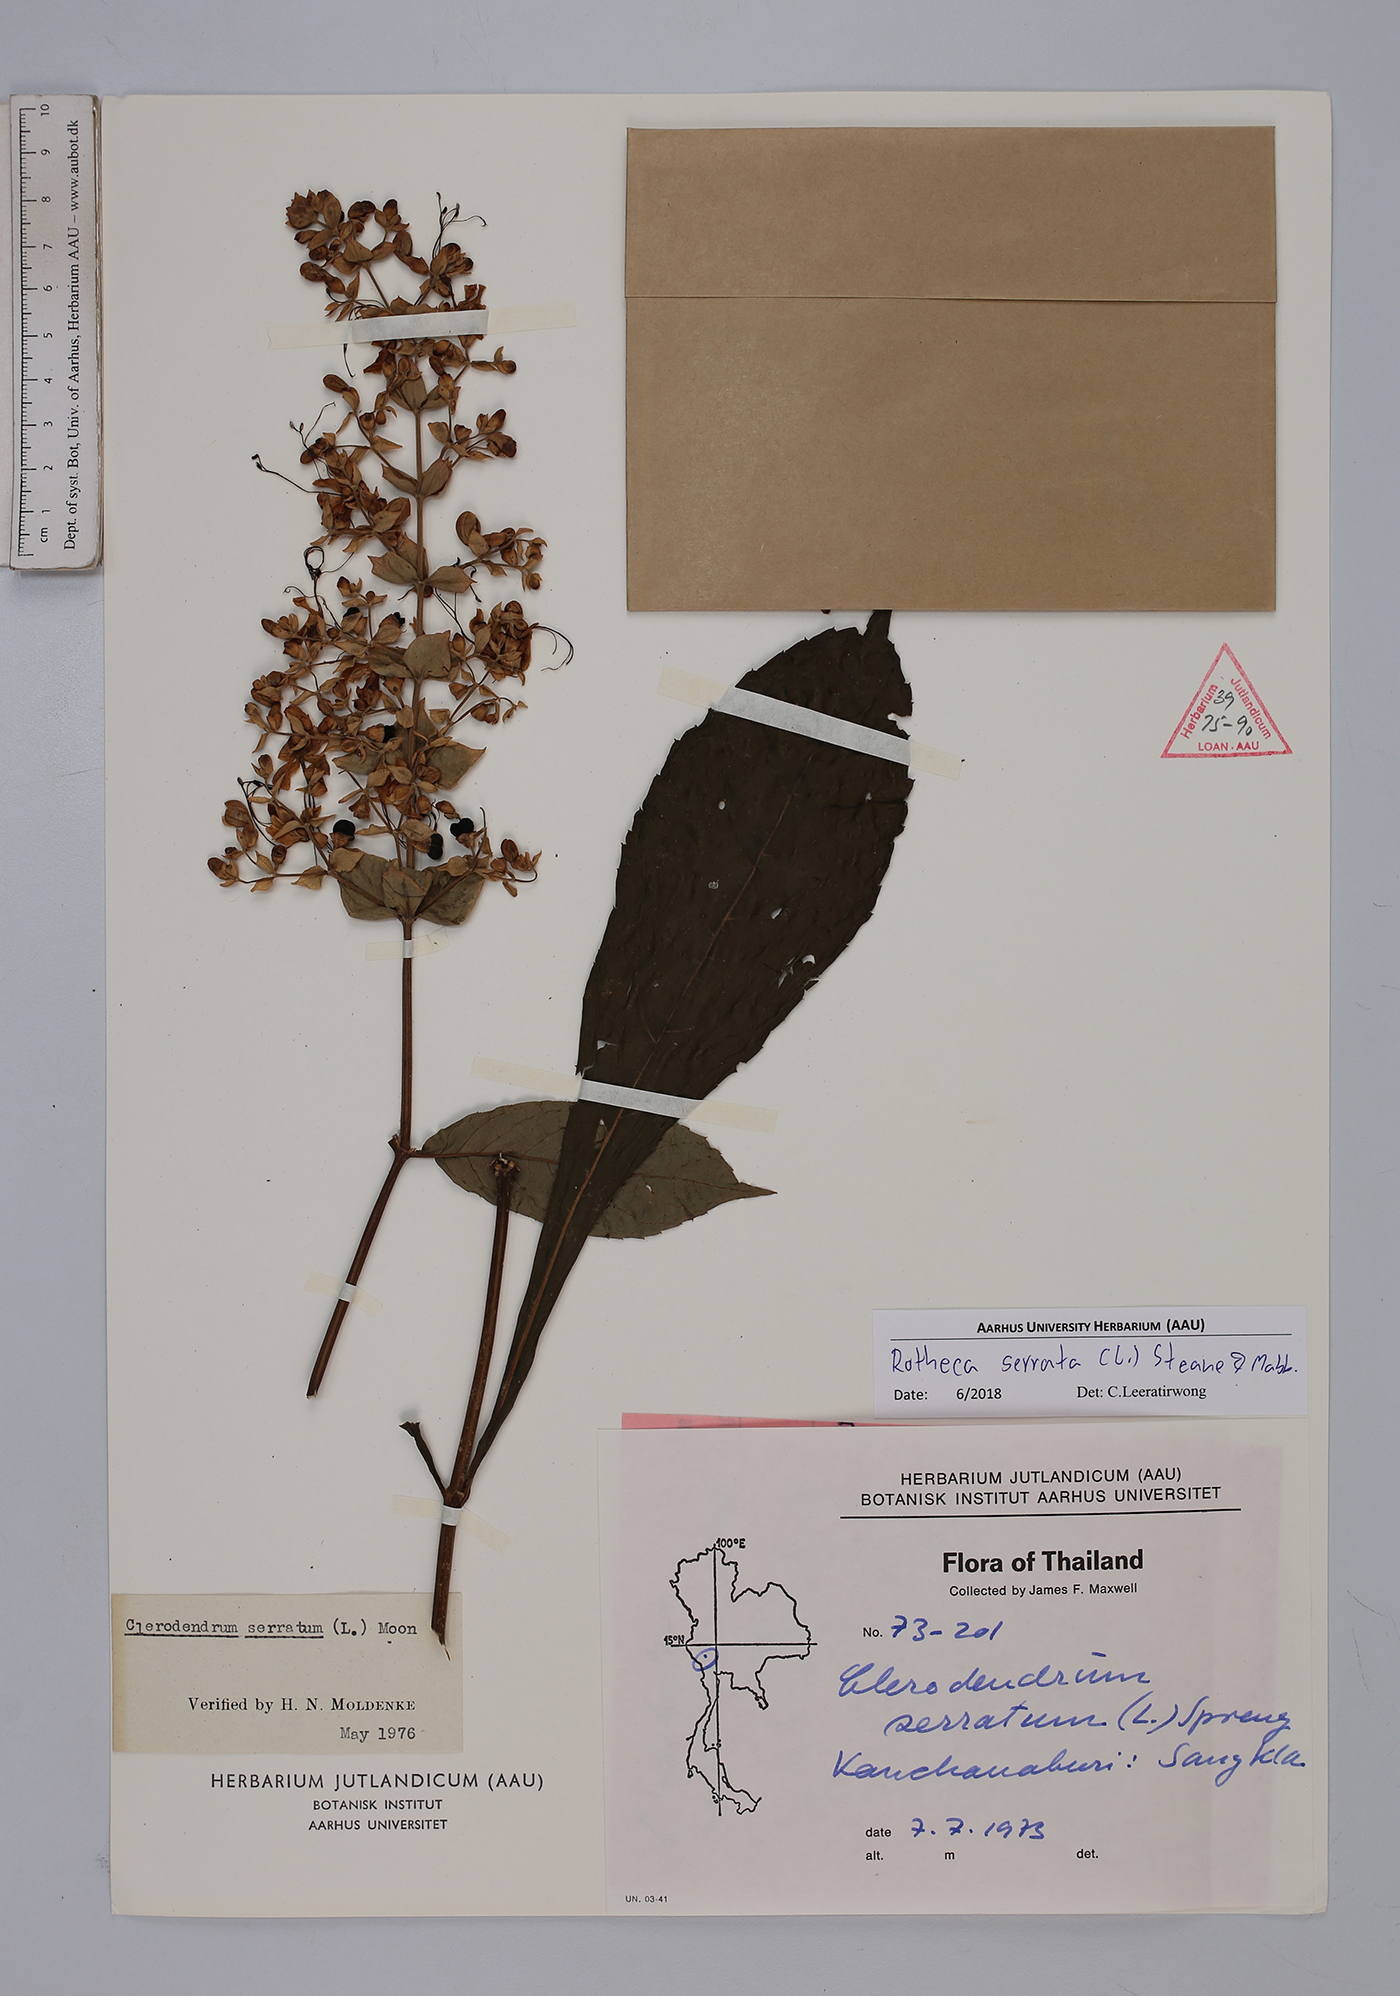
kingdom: Plantae
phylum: Tracheophyta
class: Magnoliopsida
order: Lamiales
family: Lamiaceae
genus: Rotheca
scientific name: Rotheca serrata
